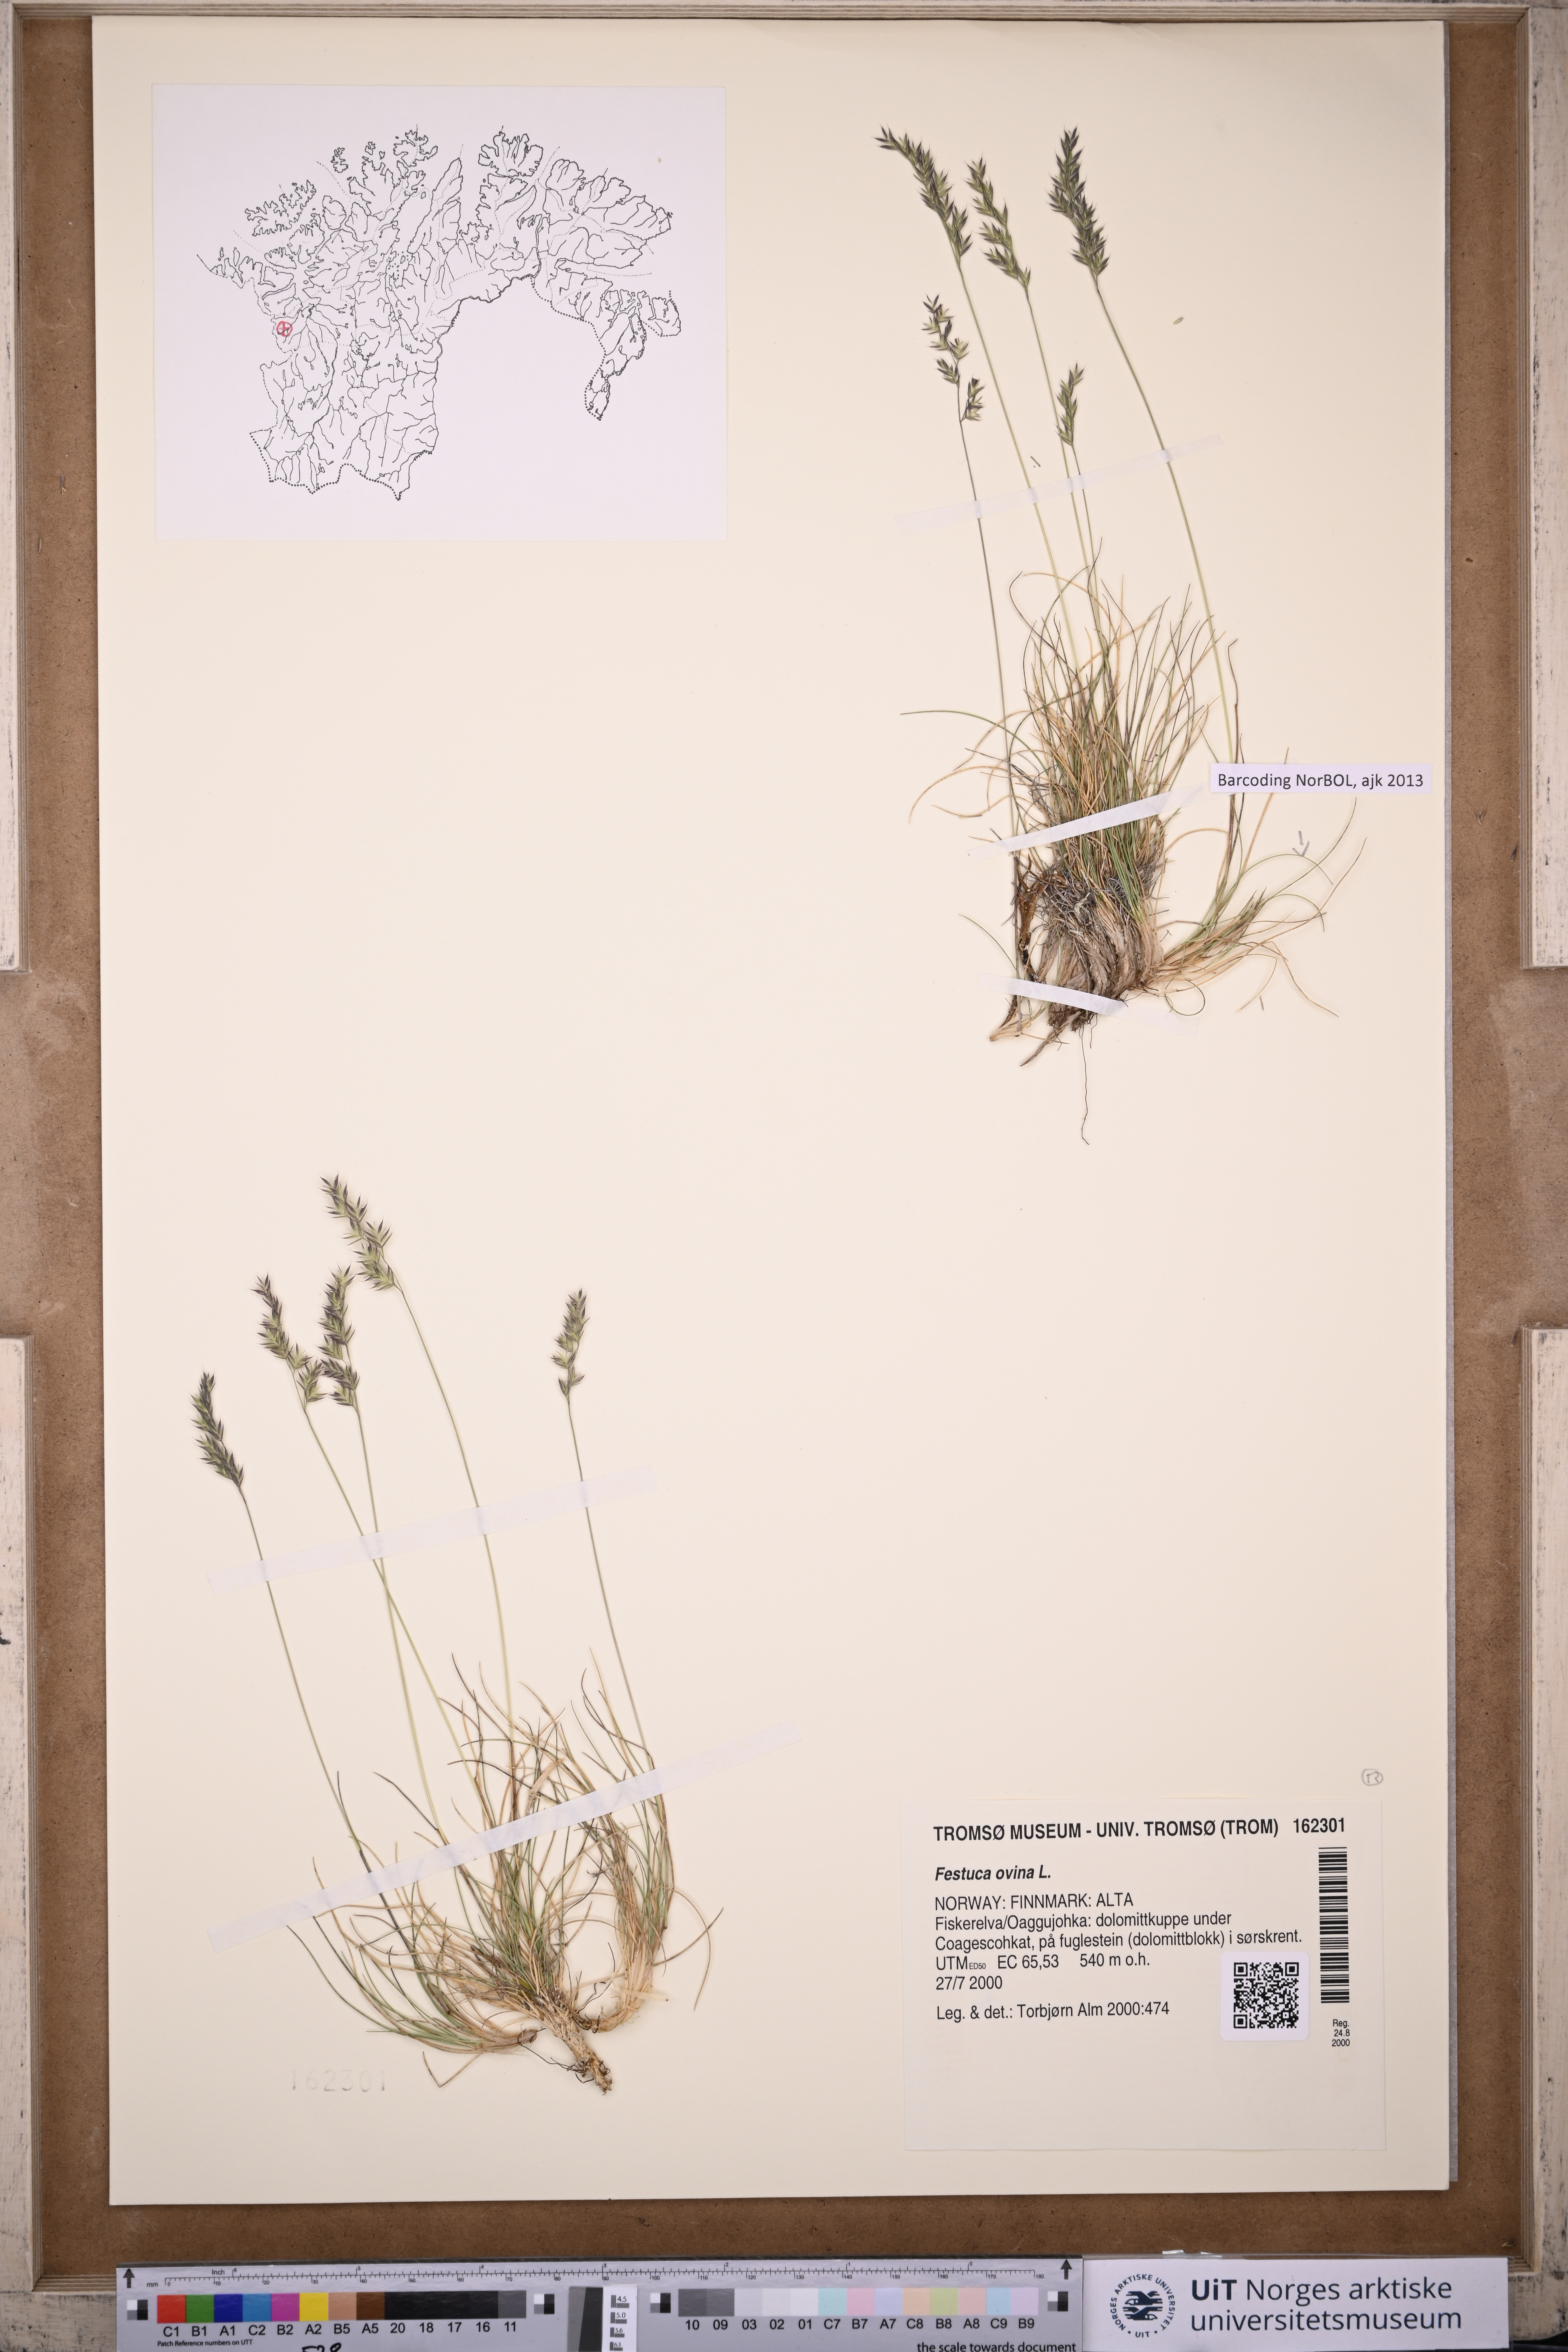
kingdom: Plantae
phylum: Tracheophyta
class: Liliopsida
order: Poales
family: Poaceae
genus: Festuca
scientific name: Festuca ovina
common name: Sheep fescue
